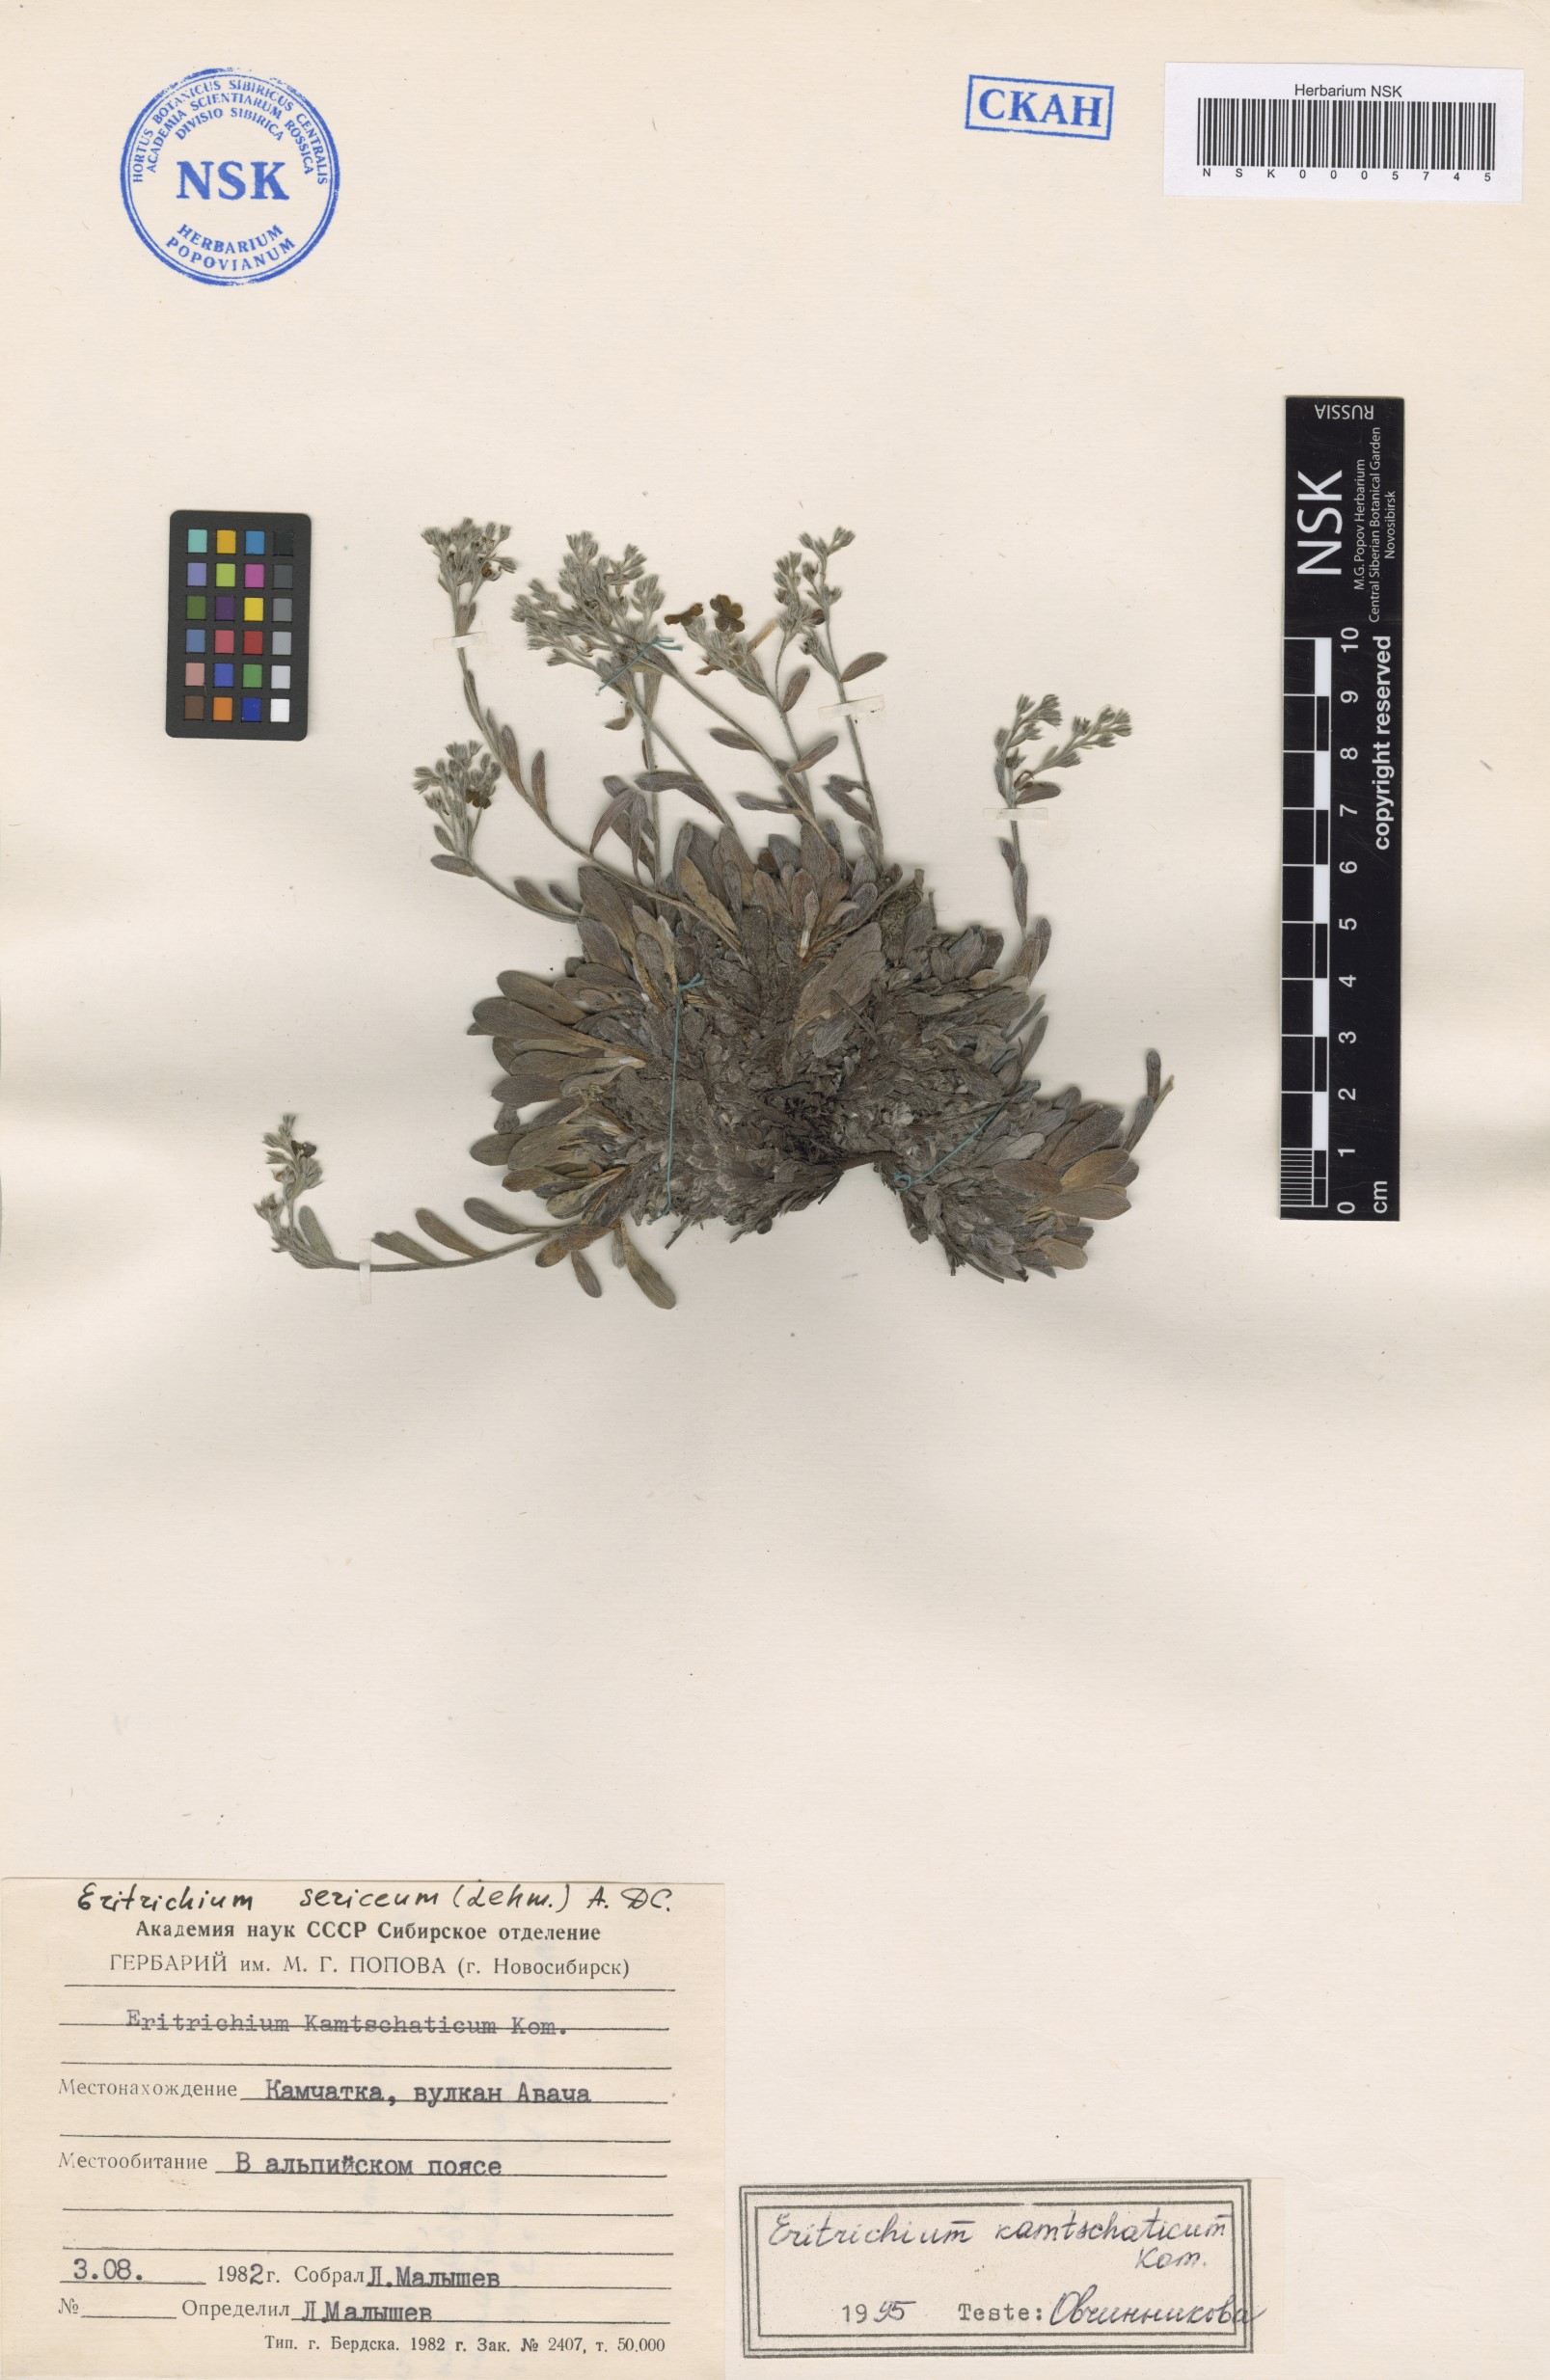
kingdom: Plantae
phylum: Tracheophyta
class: Magnoliopsida
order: Boraginales
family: Boraginaceae
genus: Eritrichium
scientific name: Eritrichium villosum
